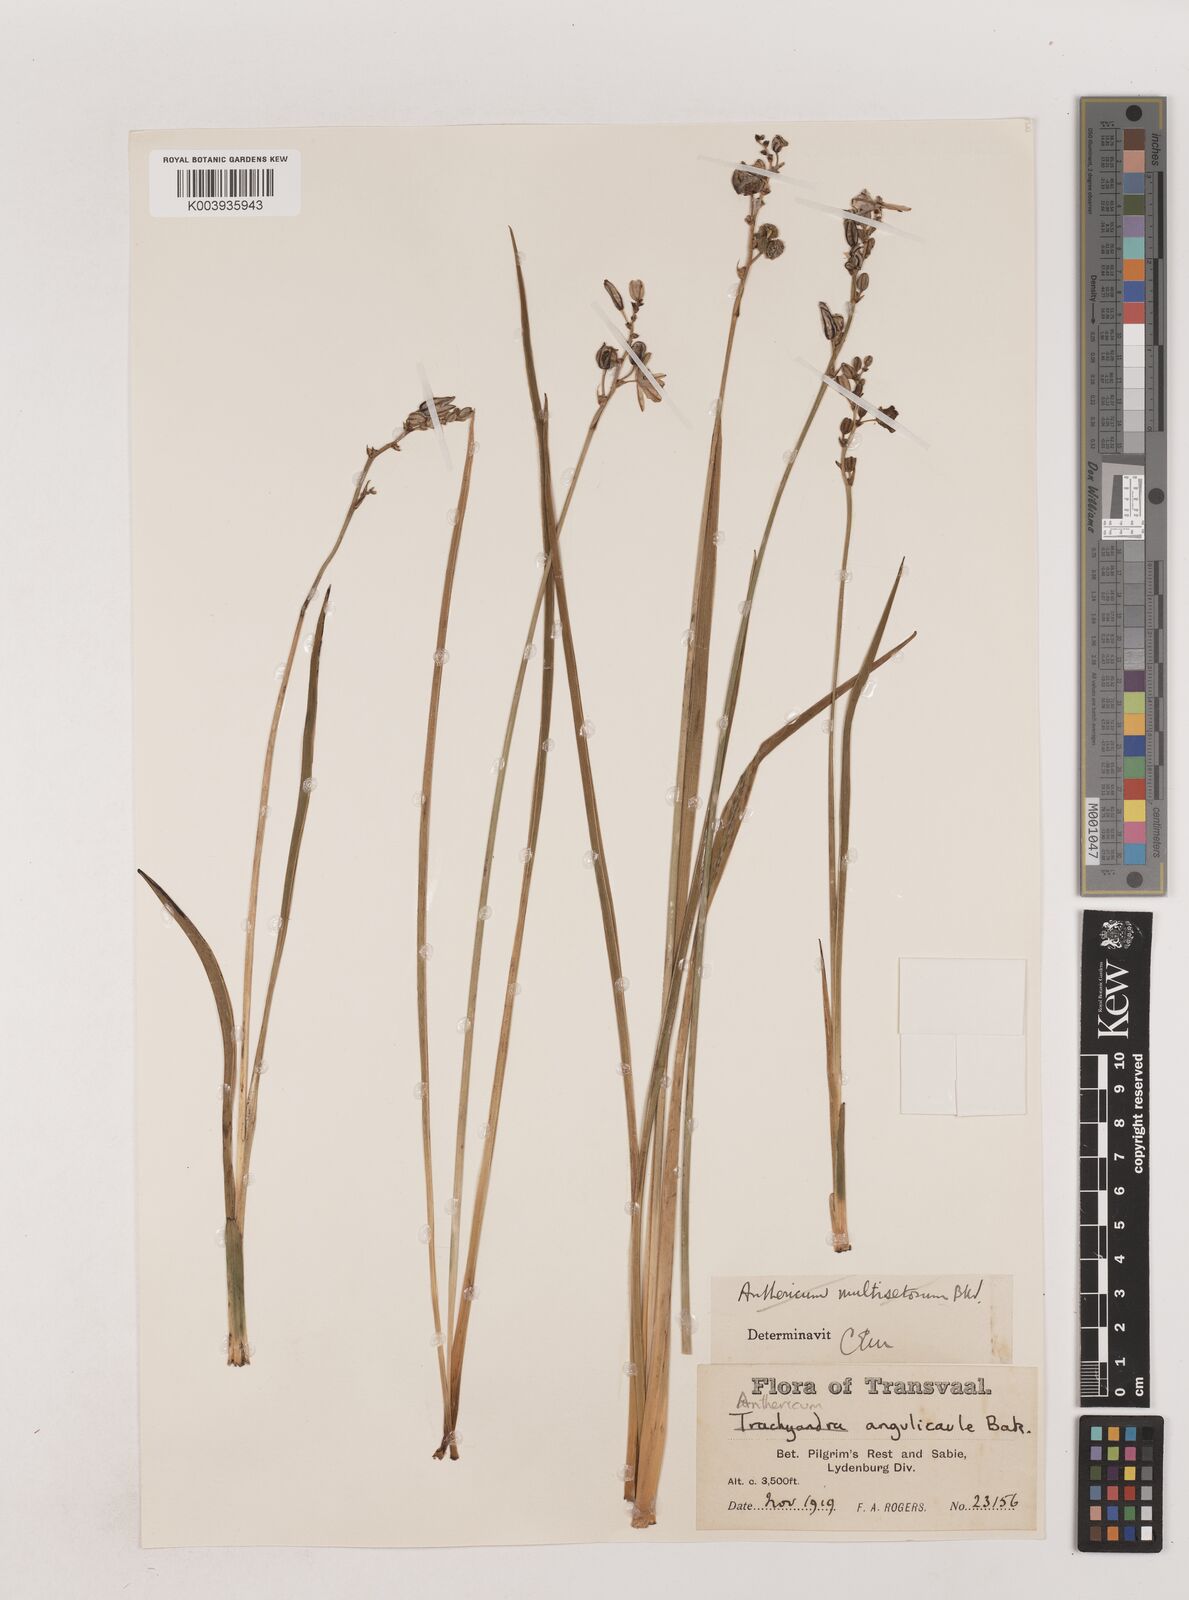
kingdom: Plantae
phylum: Tracheophyta
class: Liliopsida
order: Asparagales
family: Asparagaceae
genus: Chlorophytum
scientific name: Chlorophytum angulicaule
